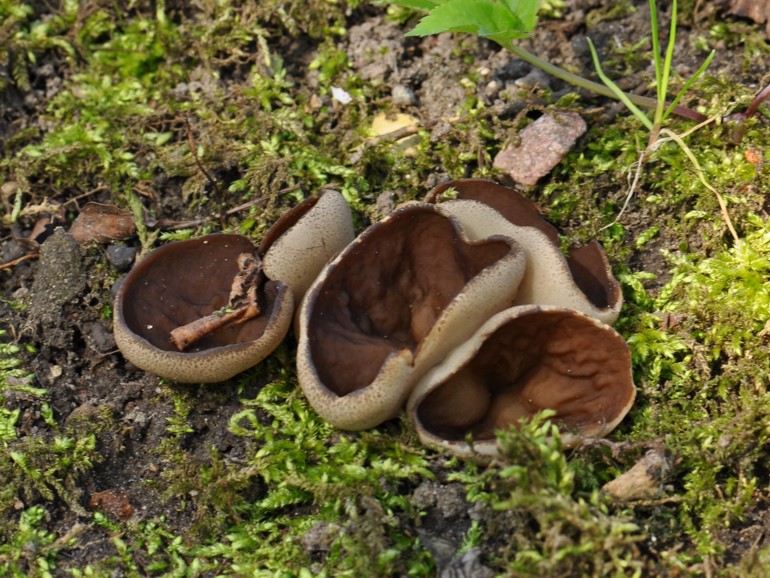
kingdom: Fungi
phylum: Ascomycota
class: Pezizomycetes
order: Pezizales
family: Morchellaceae
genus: Disciotis
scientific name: Disciotis venosa
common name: klor-bægermorkel
